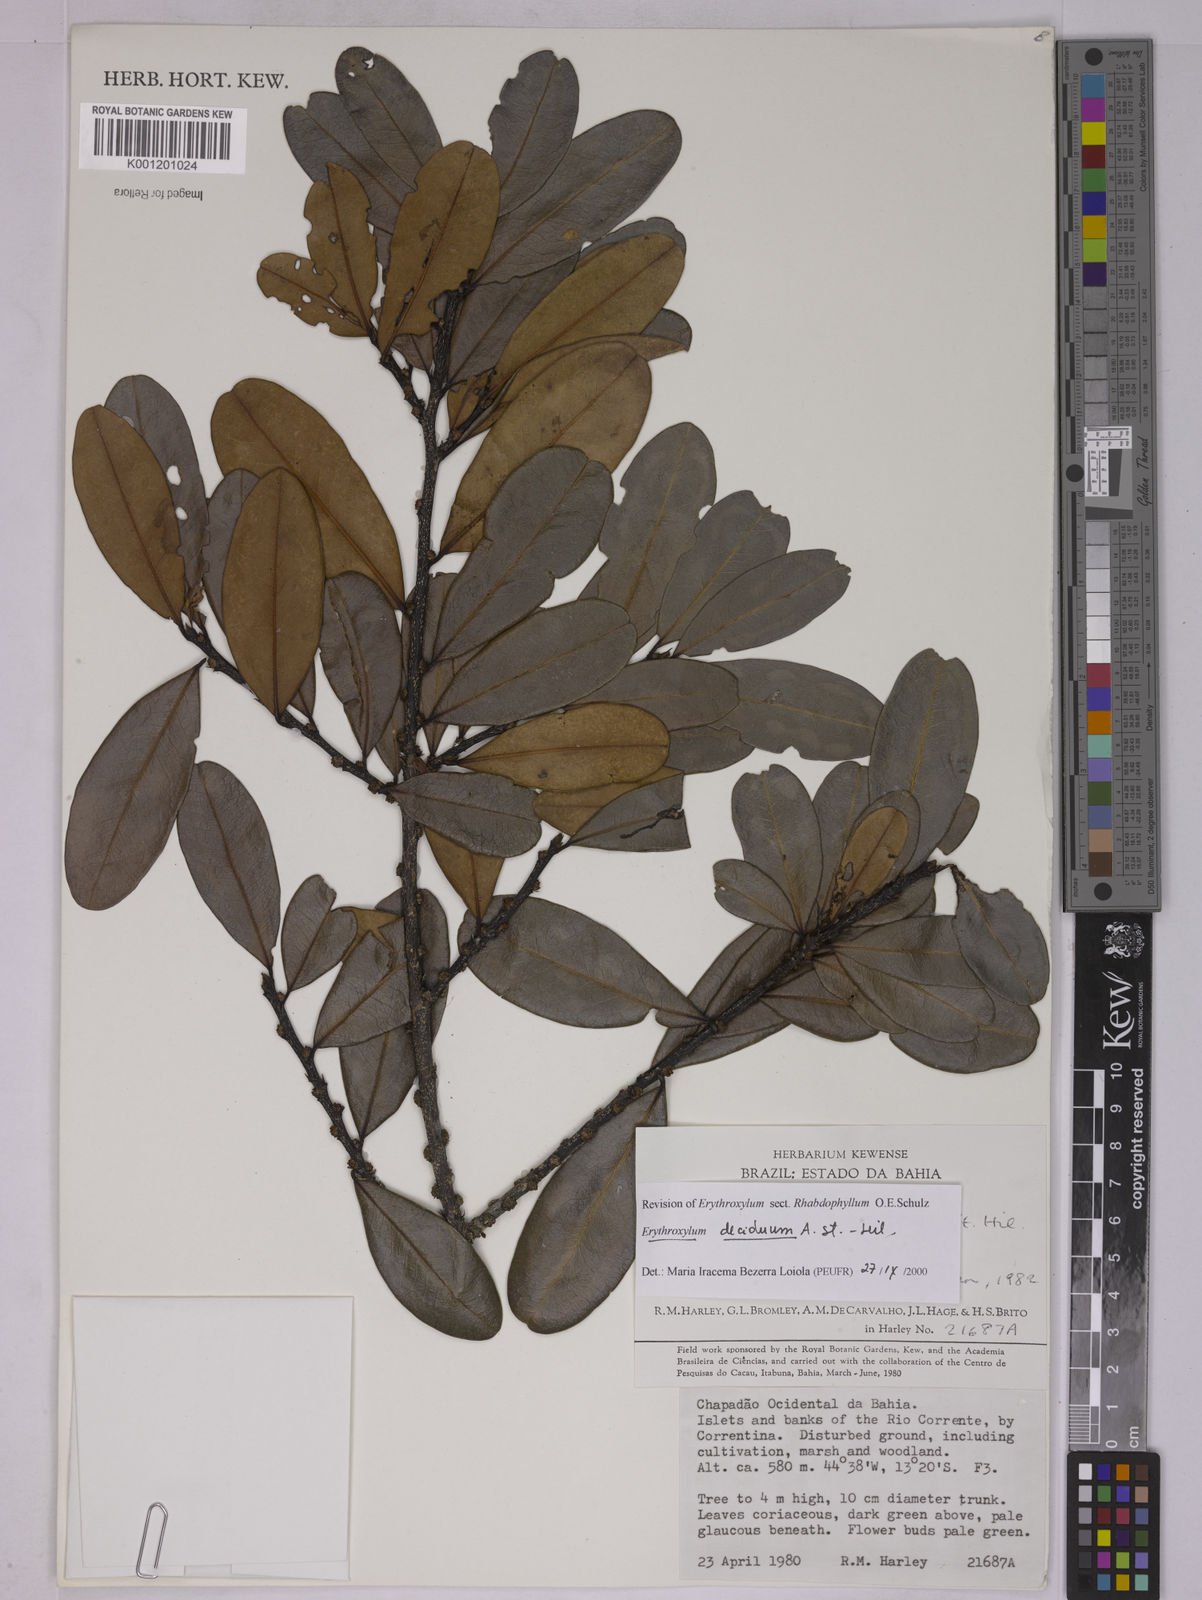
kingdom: Plantae
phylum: Tracheophyta
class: Magnoliopsida
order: Malpighiales
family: Erythroxylaceae
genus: Erythroxylum
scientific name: Erythroxylum deciduum
